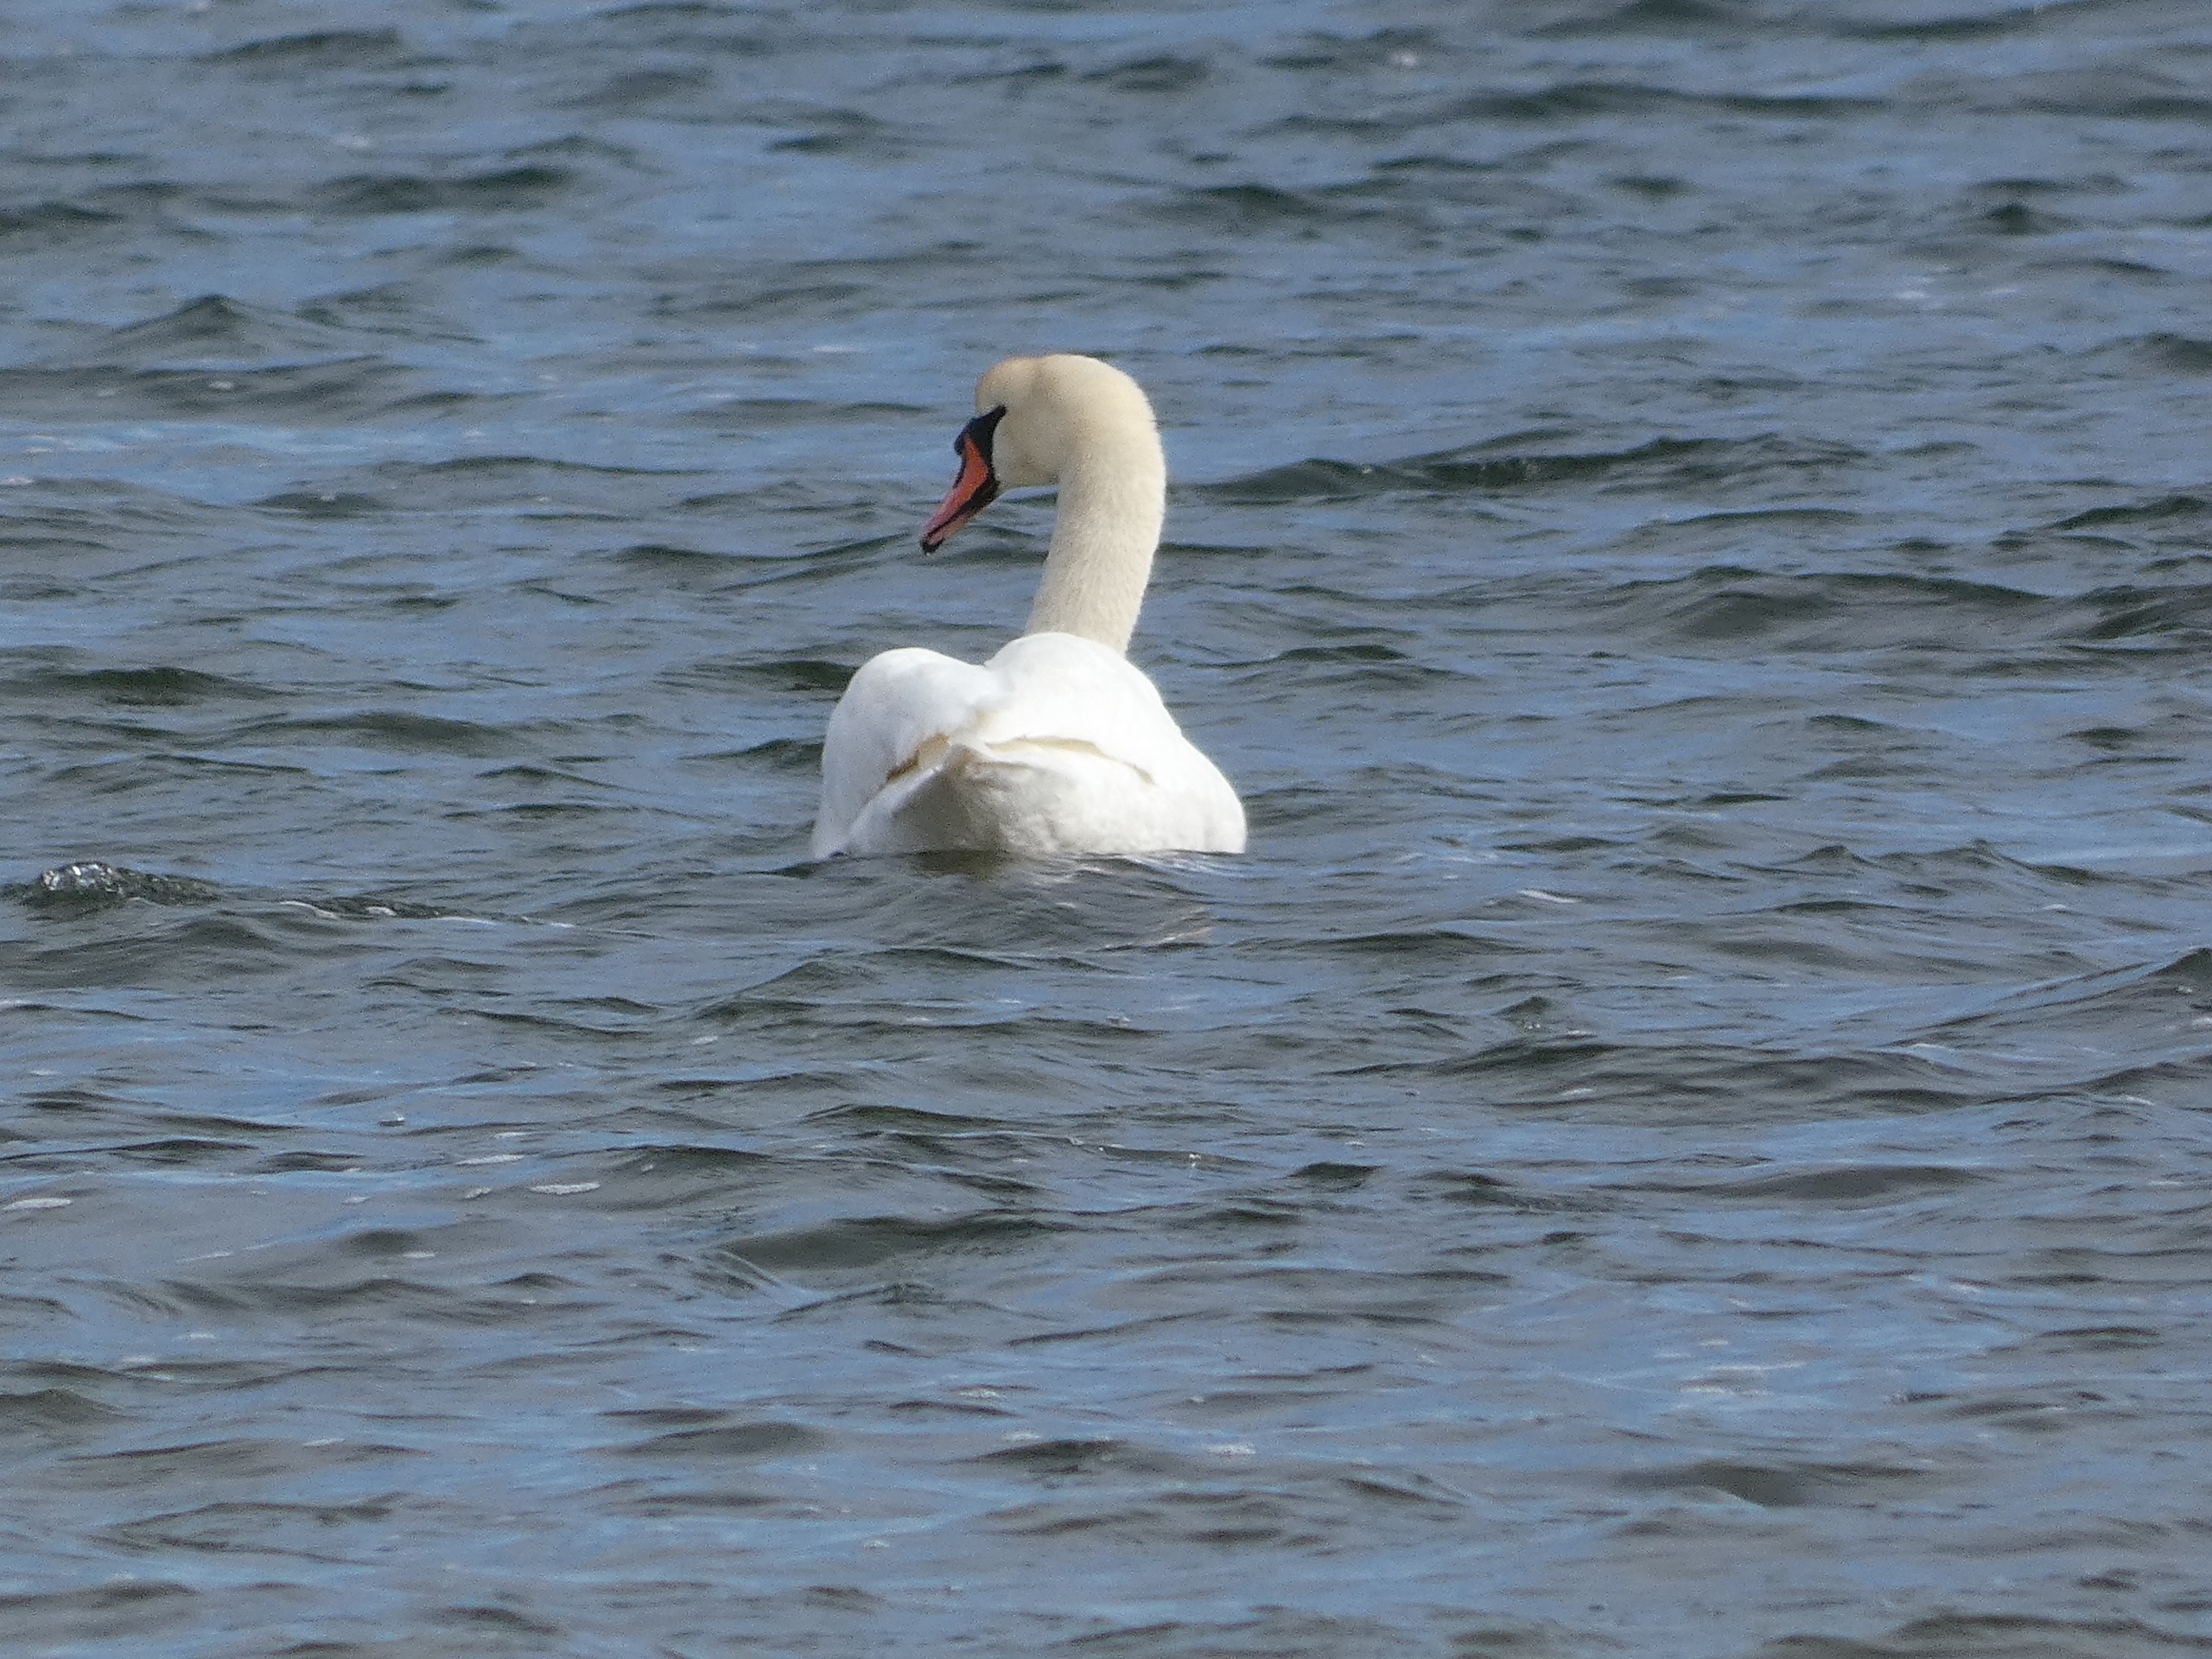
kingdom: Animalia
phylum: Chordata
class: Aves
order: Anseriformes
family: Anatidae
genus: Cygnus
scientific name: Cygnus olor
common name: Knopsvane
